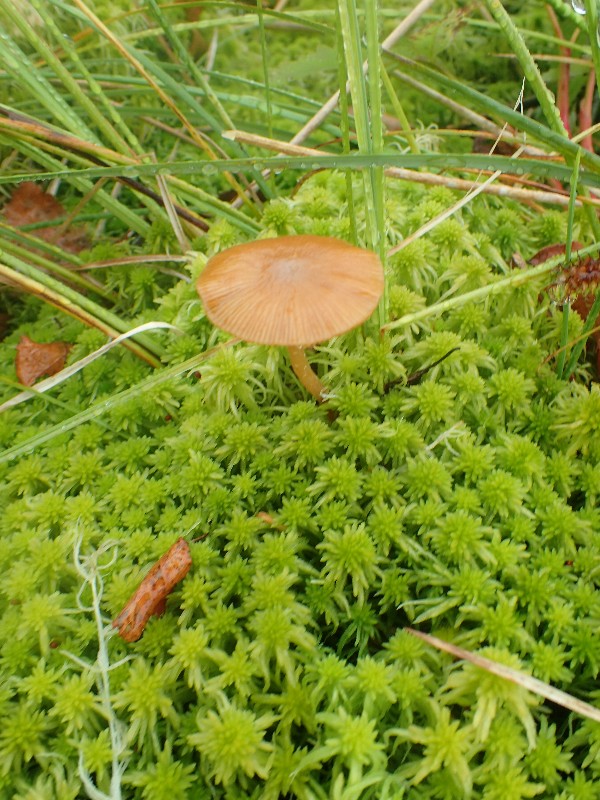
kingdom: Fungi
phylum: Basidiomycota
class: Agaricomycetes
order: Agaricales
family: Hymenogastraceae
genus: Galerina
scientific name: Galerina
